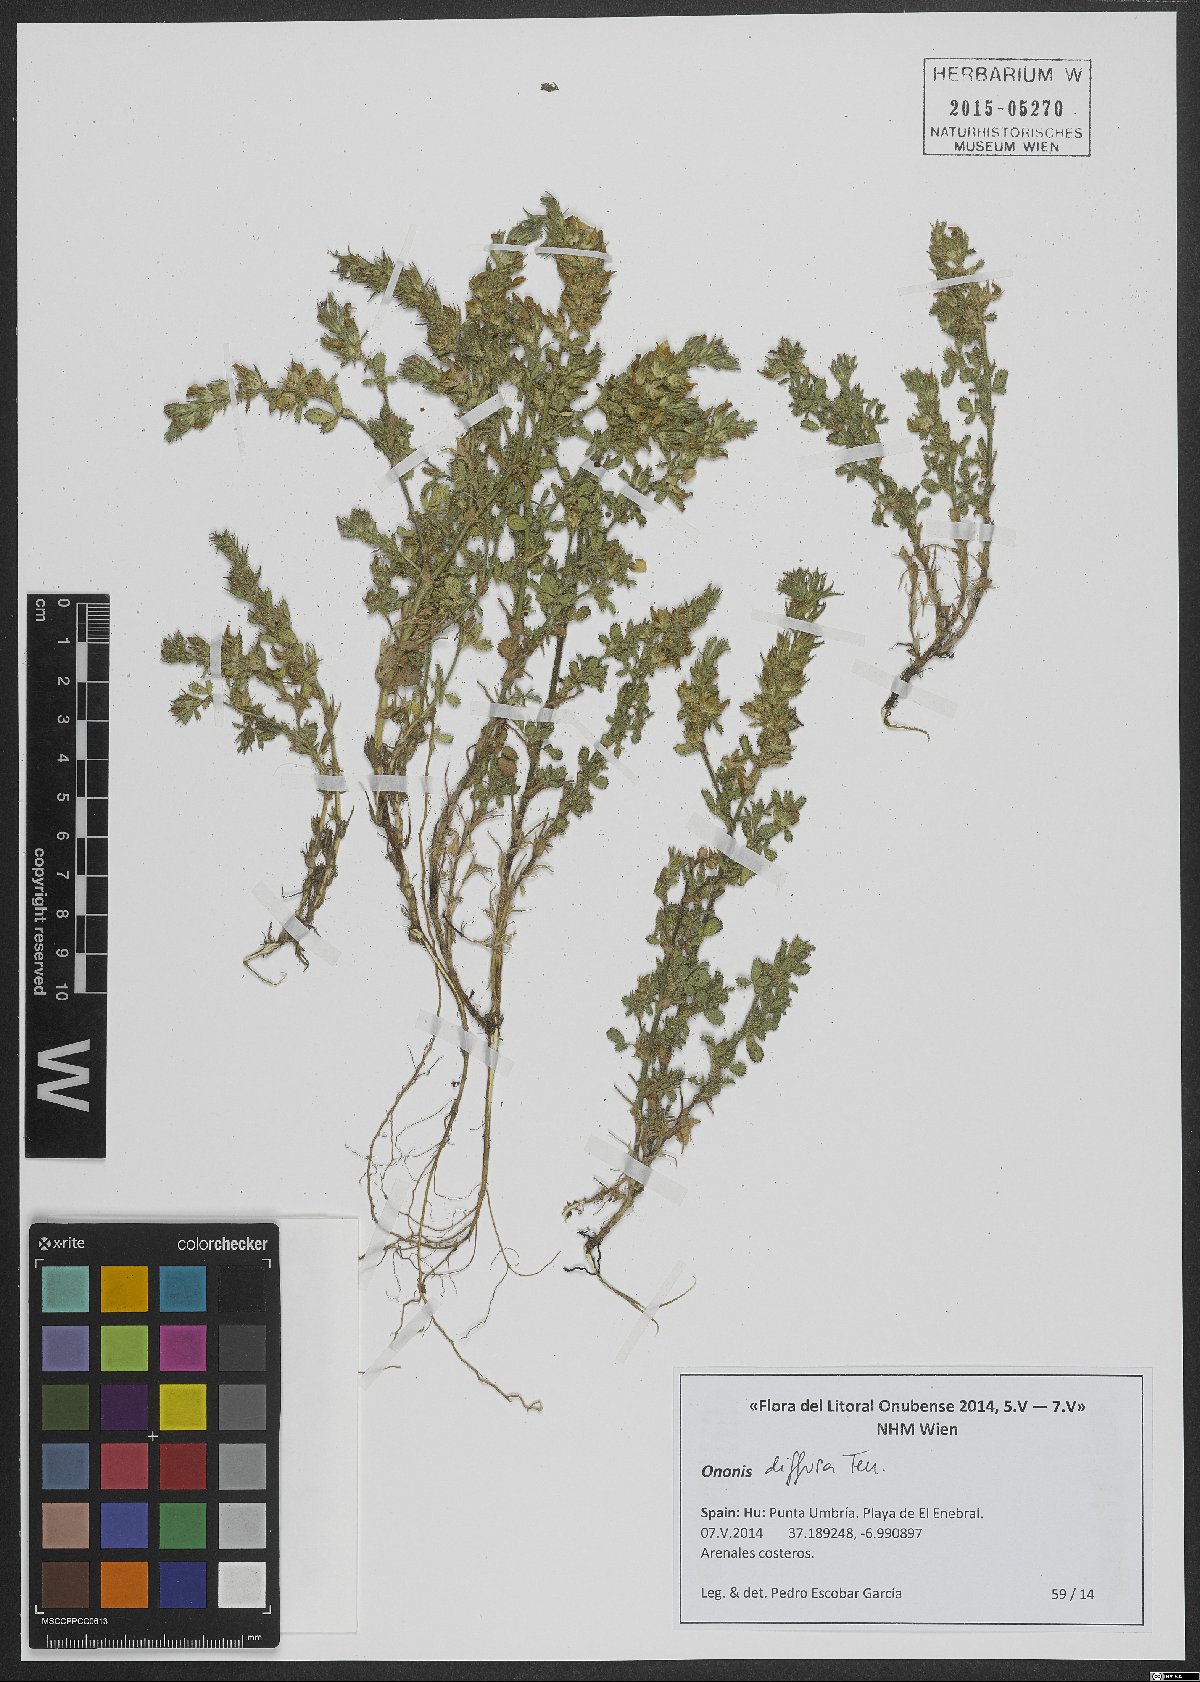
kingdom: Plantae
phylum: Tracheophyta
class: Magnoliopsida
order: Fabales
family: Fabaceae
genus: Ononis
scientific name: Ononis diffusa
